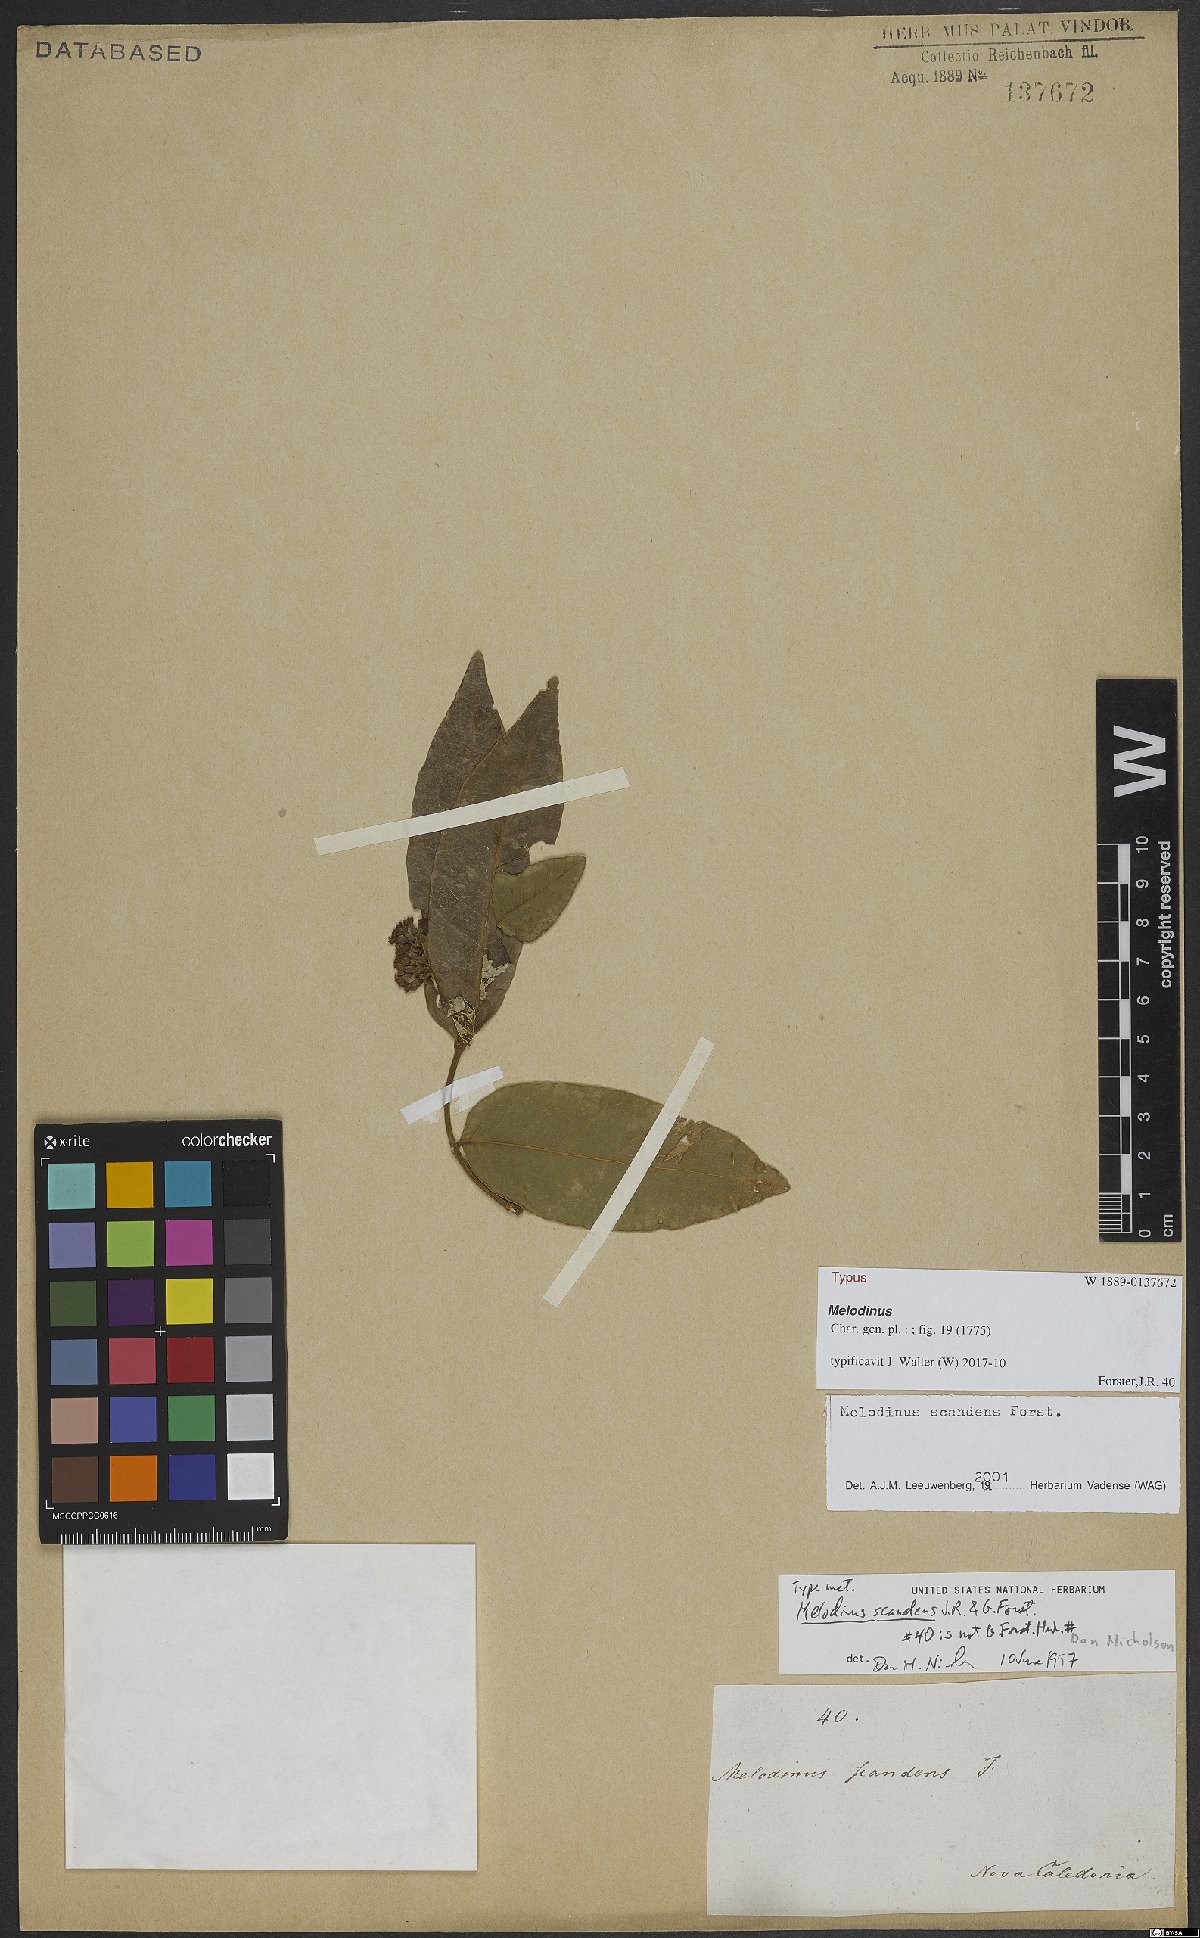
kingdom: Plantae
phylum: Tracheophyta
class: Magnoliopsida
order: Gentianales
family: Apocynaceae
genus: Melodinus
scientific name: Melodinus scandens
